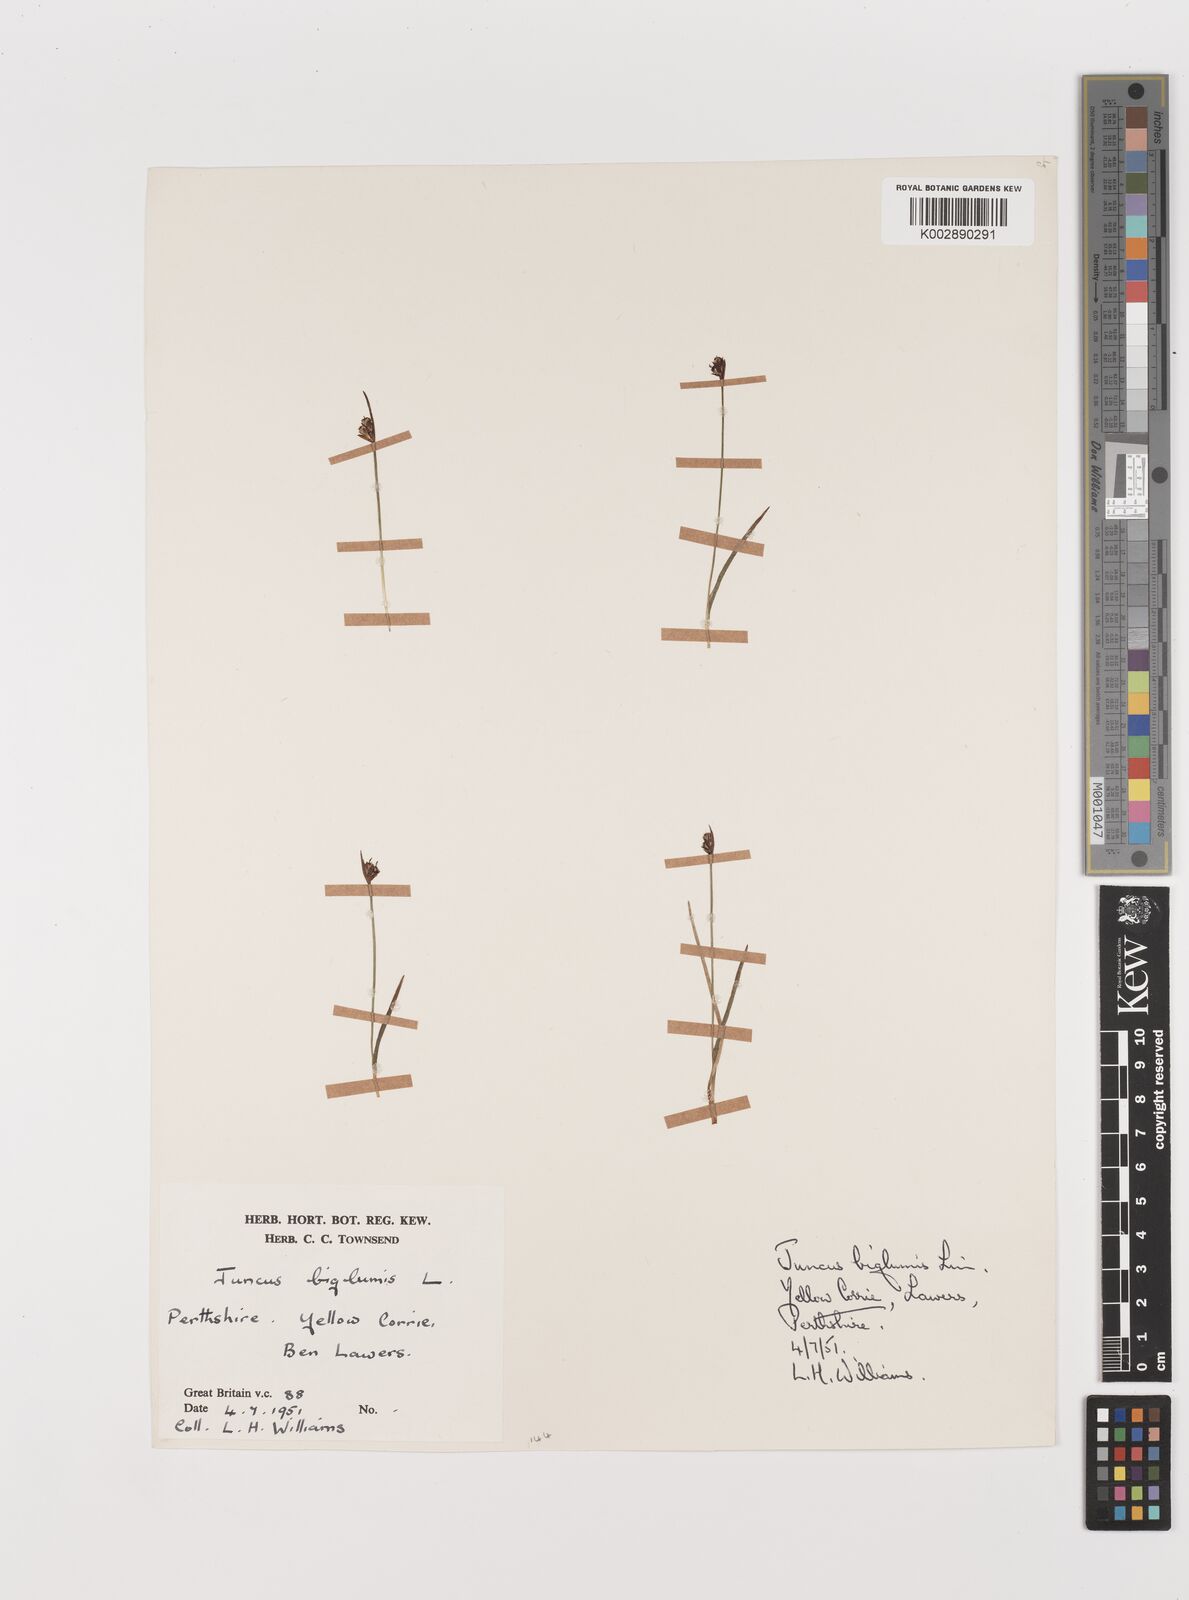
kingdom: Plantae
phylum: Tracheophyta
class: Liliopsida
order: Poales
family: Juncaceae
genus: Juncus
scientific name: Juncus biglumis
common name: Two-flowered rush
